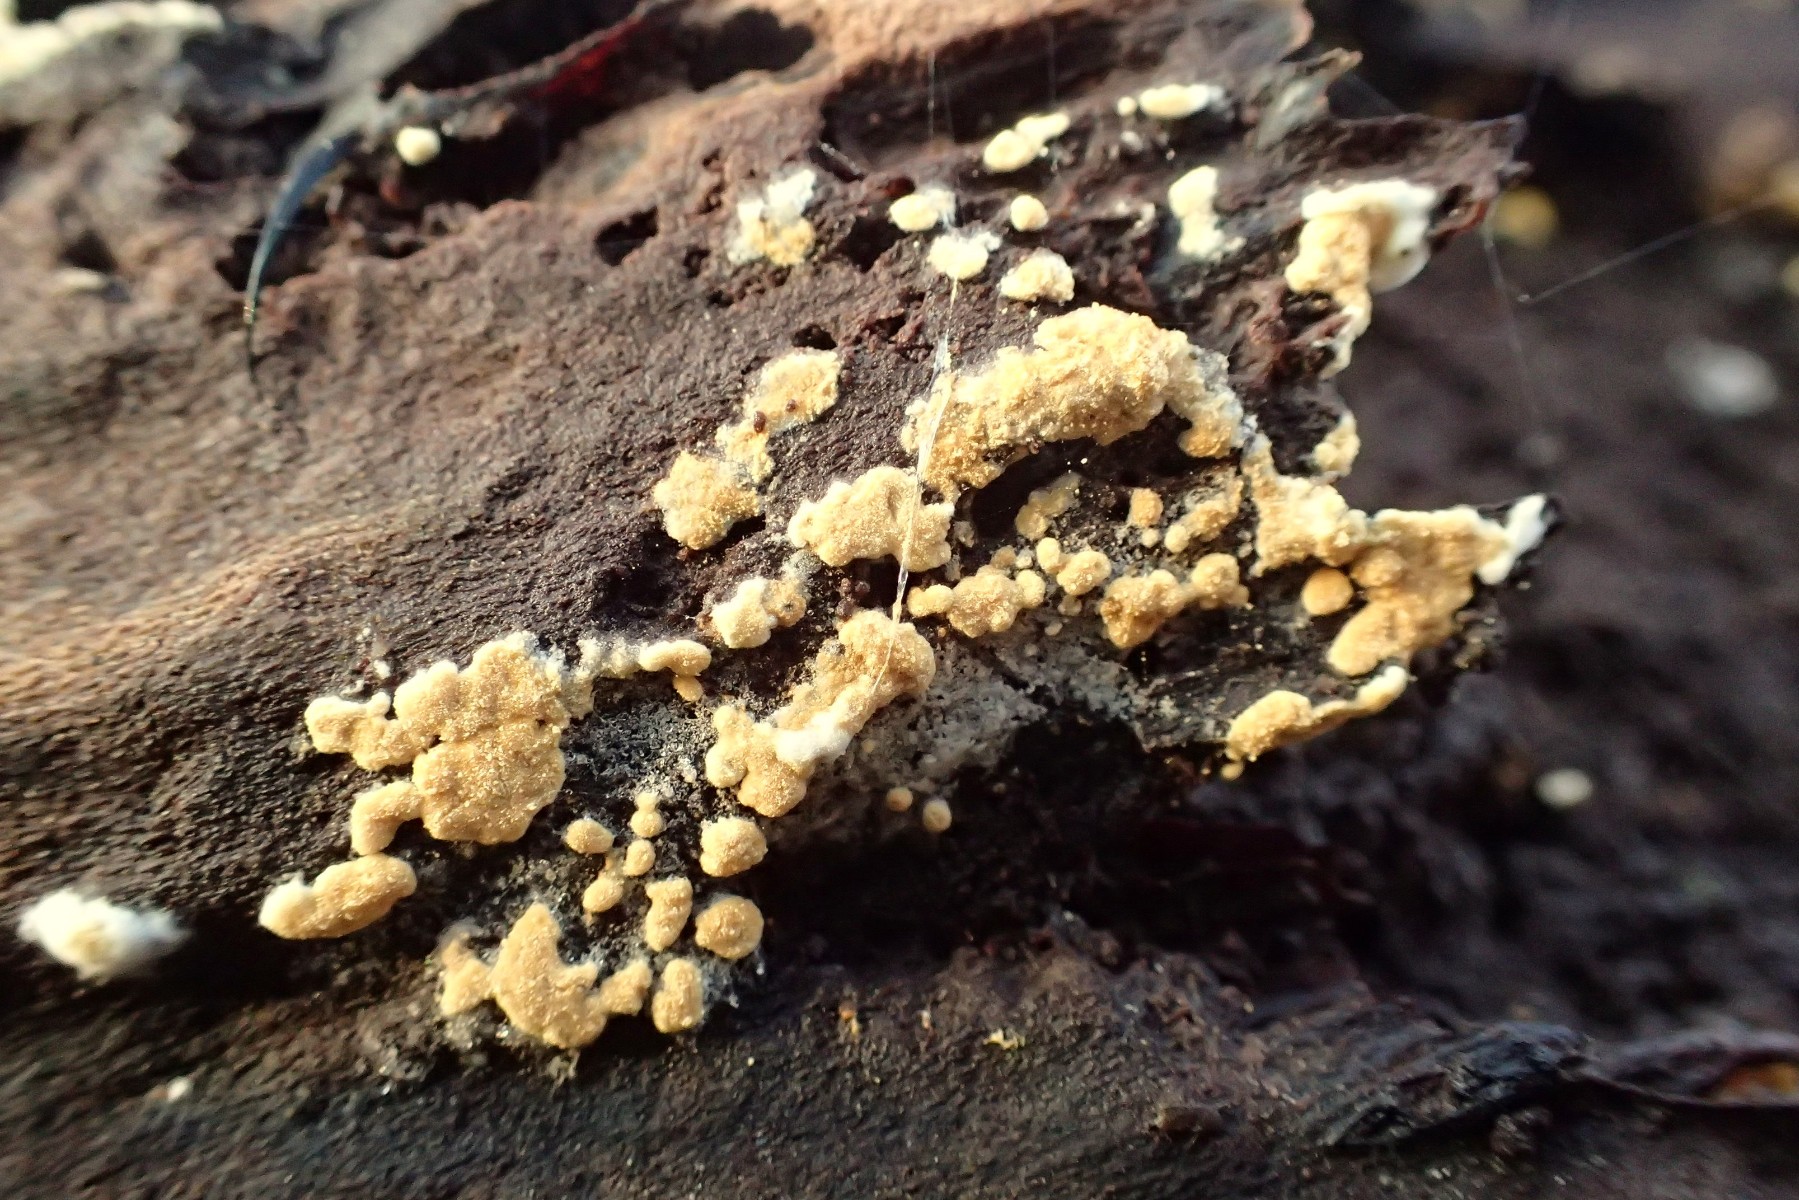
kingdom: Fungi
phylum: Basidiomycota
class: Agaricomycetes
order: Cantharellales
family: Botryobasidiaceae
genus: Botryobasidium
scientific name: Botryobasidium aureum
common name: gylden spindhinde
